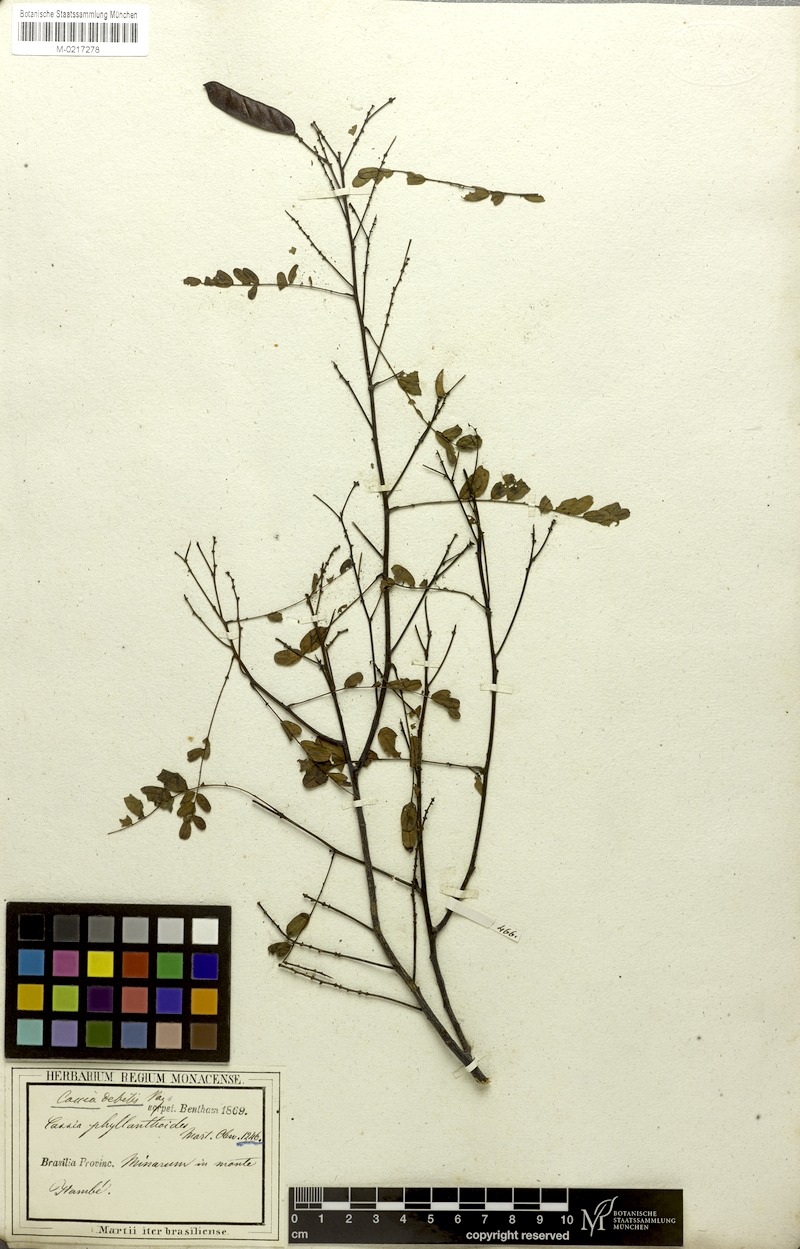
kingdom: Plantae
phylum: Tracheophyta
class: Magnoliopsida
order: Fabales
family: Fabaceae
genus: Chamaecrista
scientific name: Chamaecrista debilis
